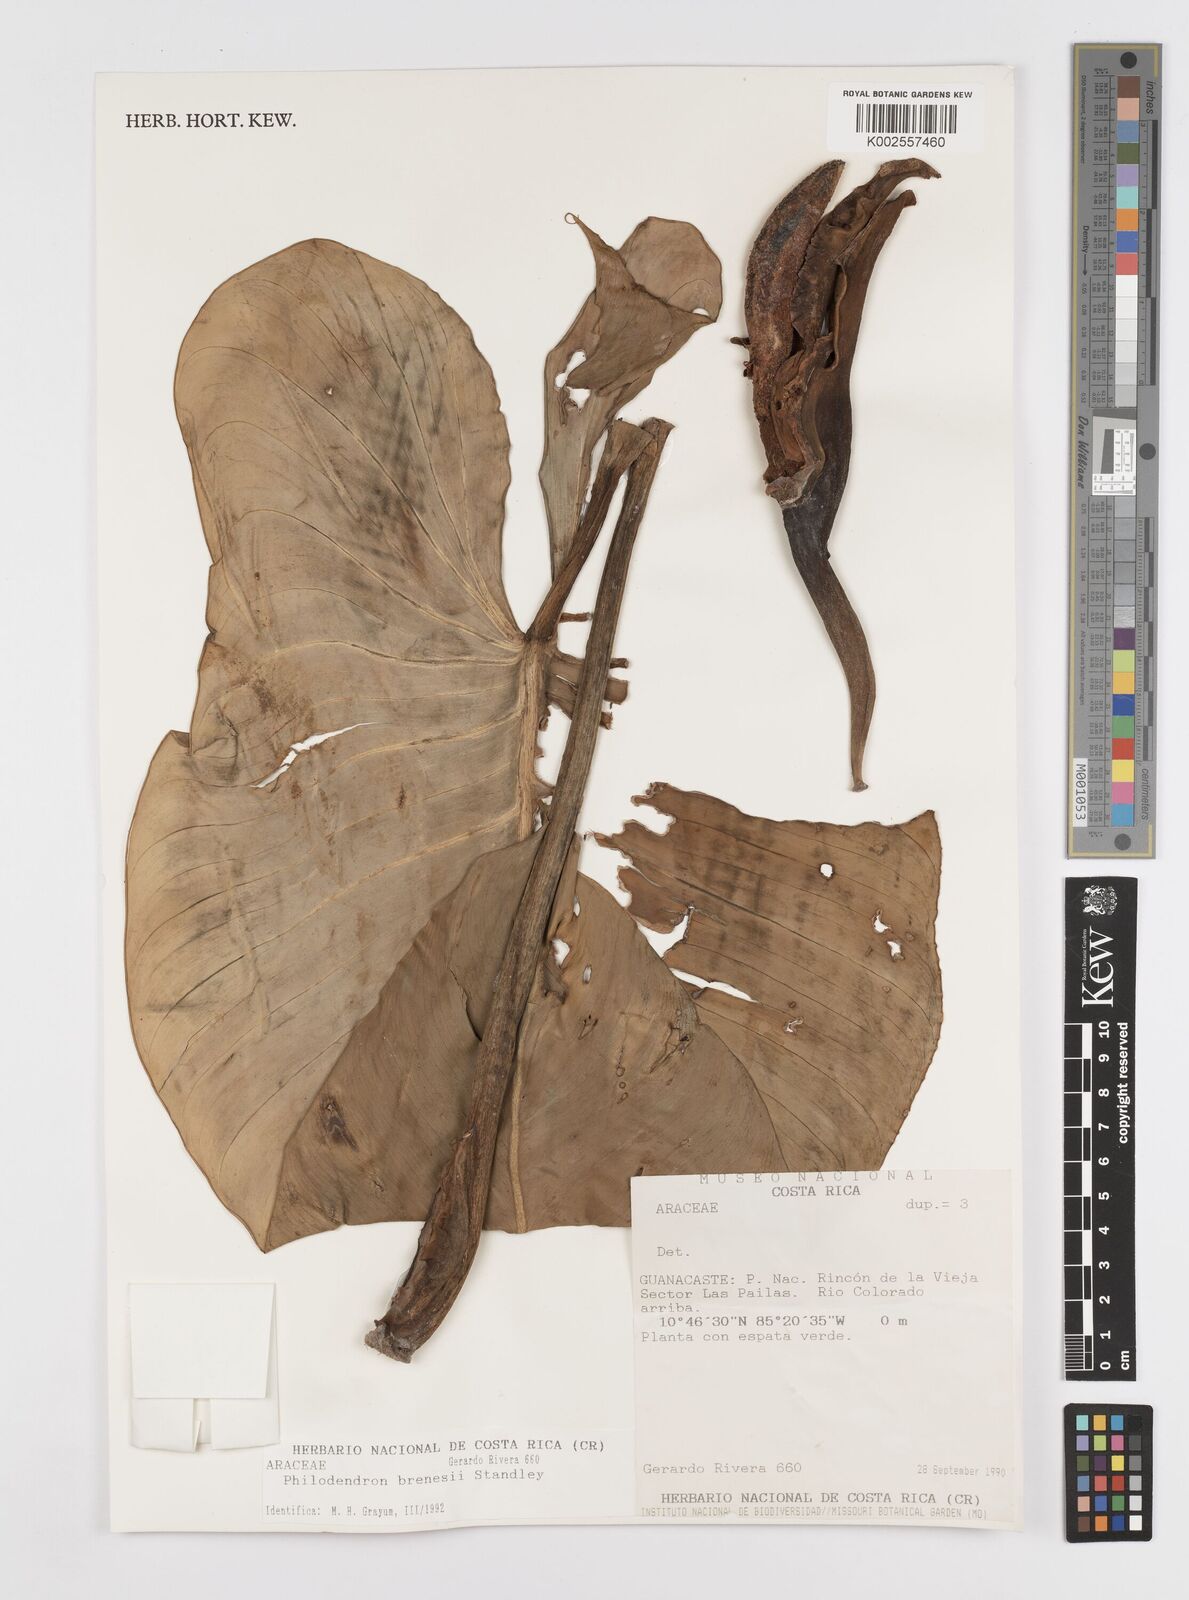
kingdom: Plantae
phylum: Tracheophyta
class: Liliopsida
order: Alismatales
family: Araceae
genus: Philodendron
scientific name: Philodendron brenesii
